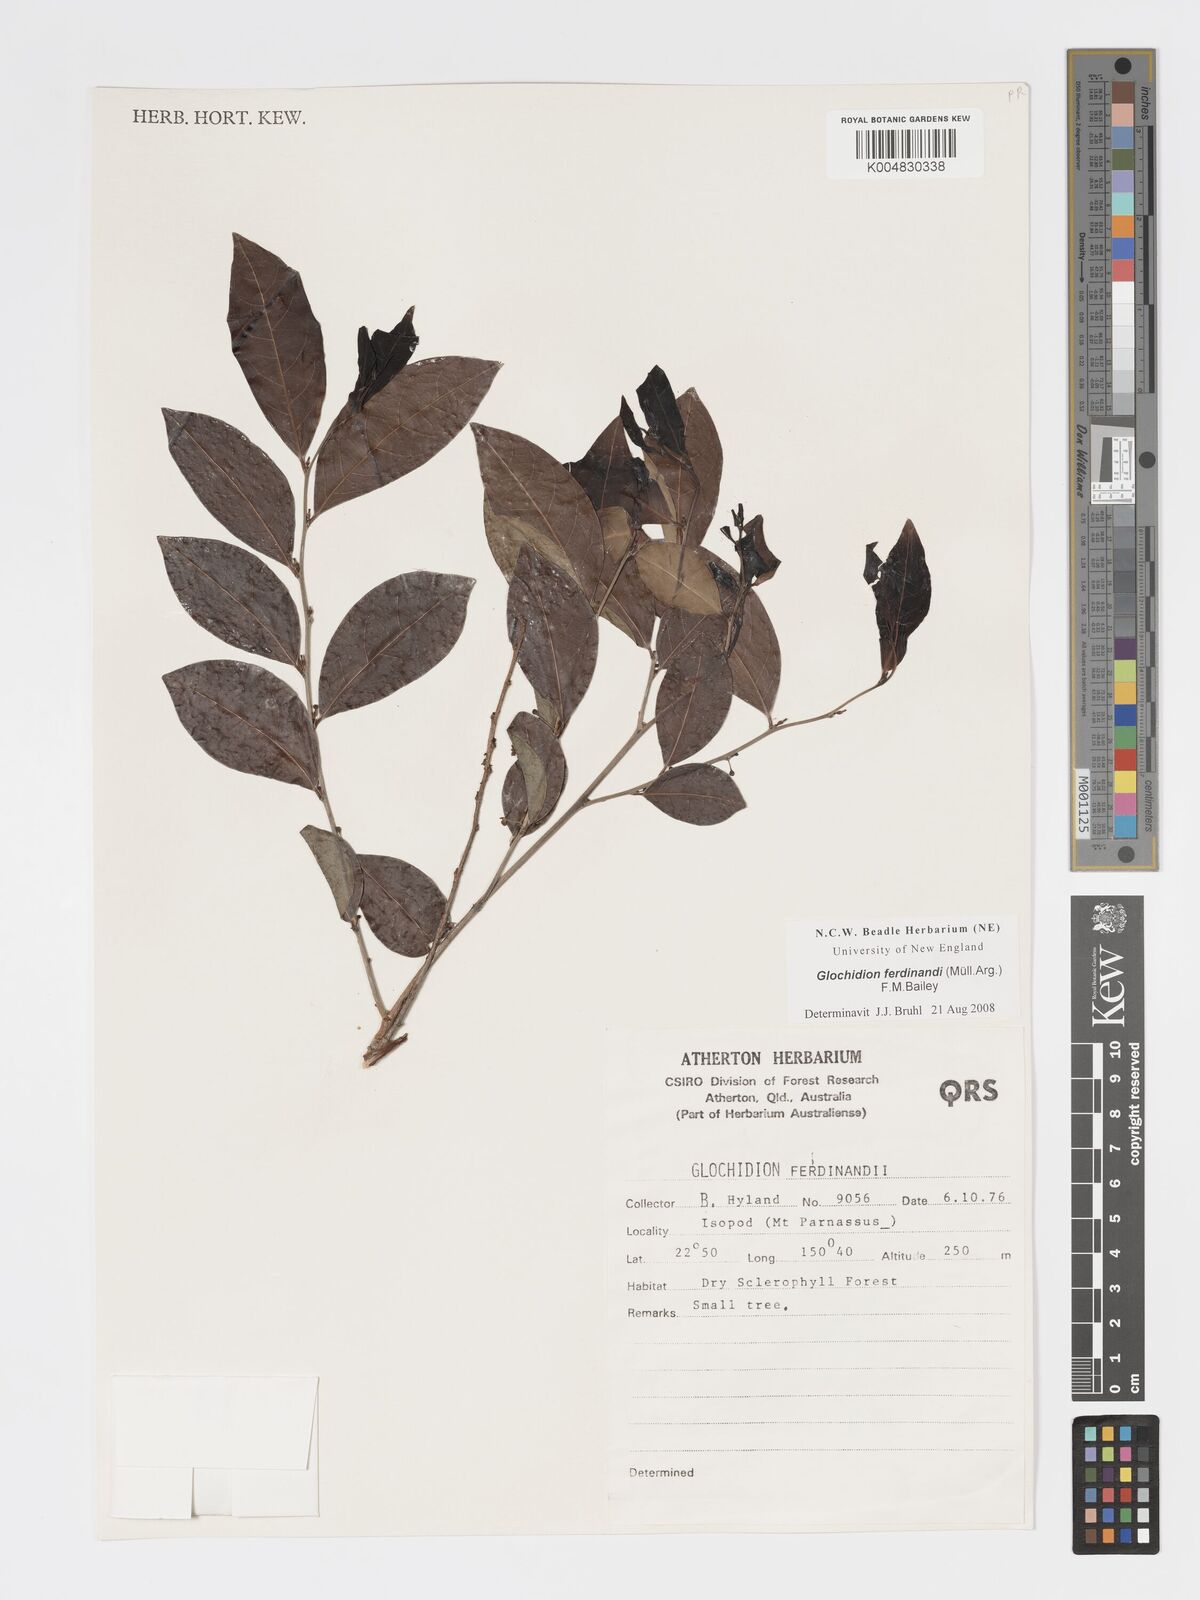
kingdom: Plantae
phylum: Tracheophyta
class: Magnoliopsida
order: Malpighiales
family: Phyllanthaceae
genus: Glochidion
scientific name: Glochidion ferdinandi
